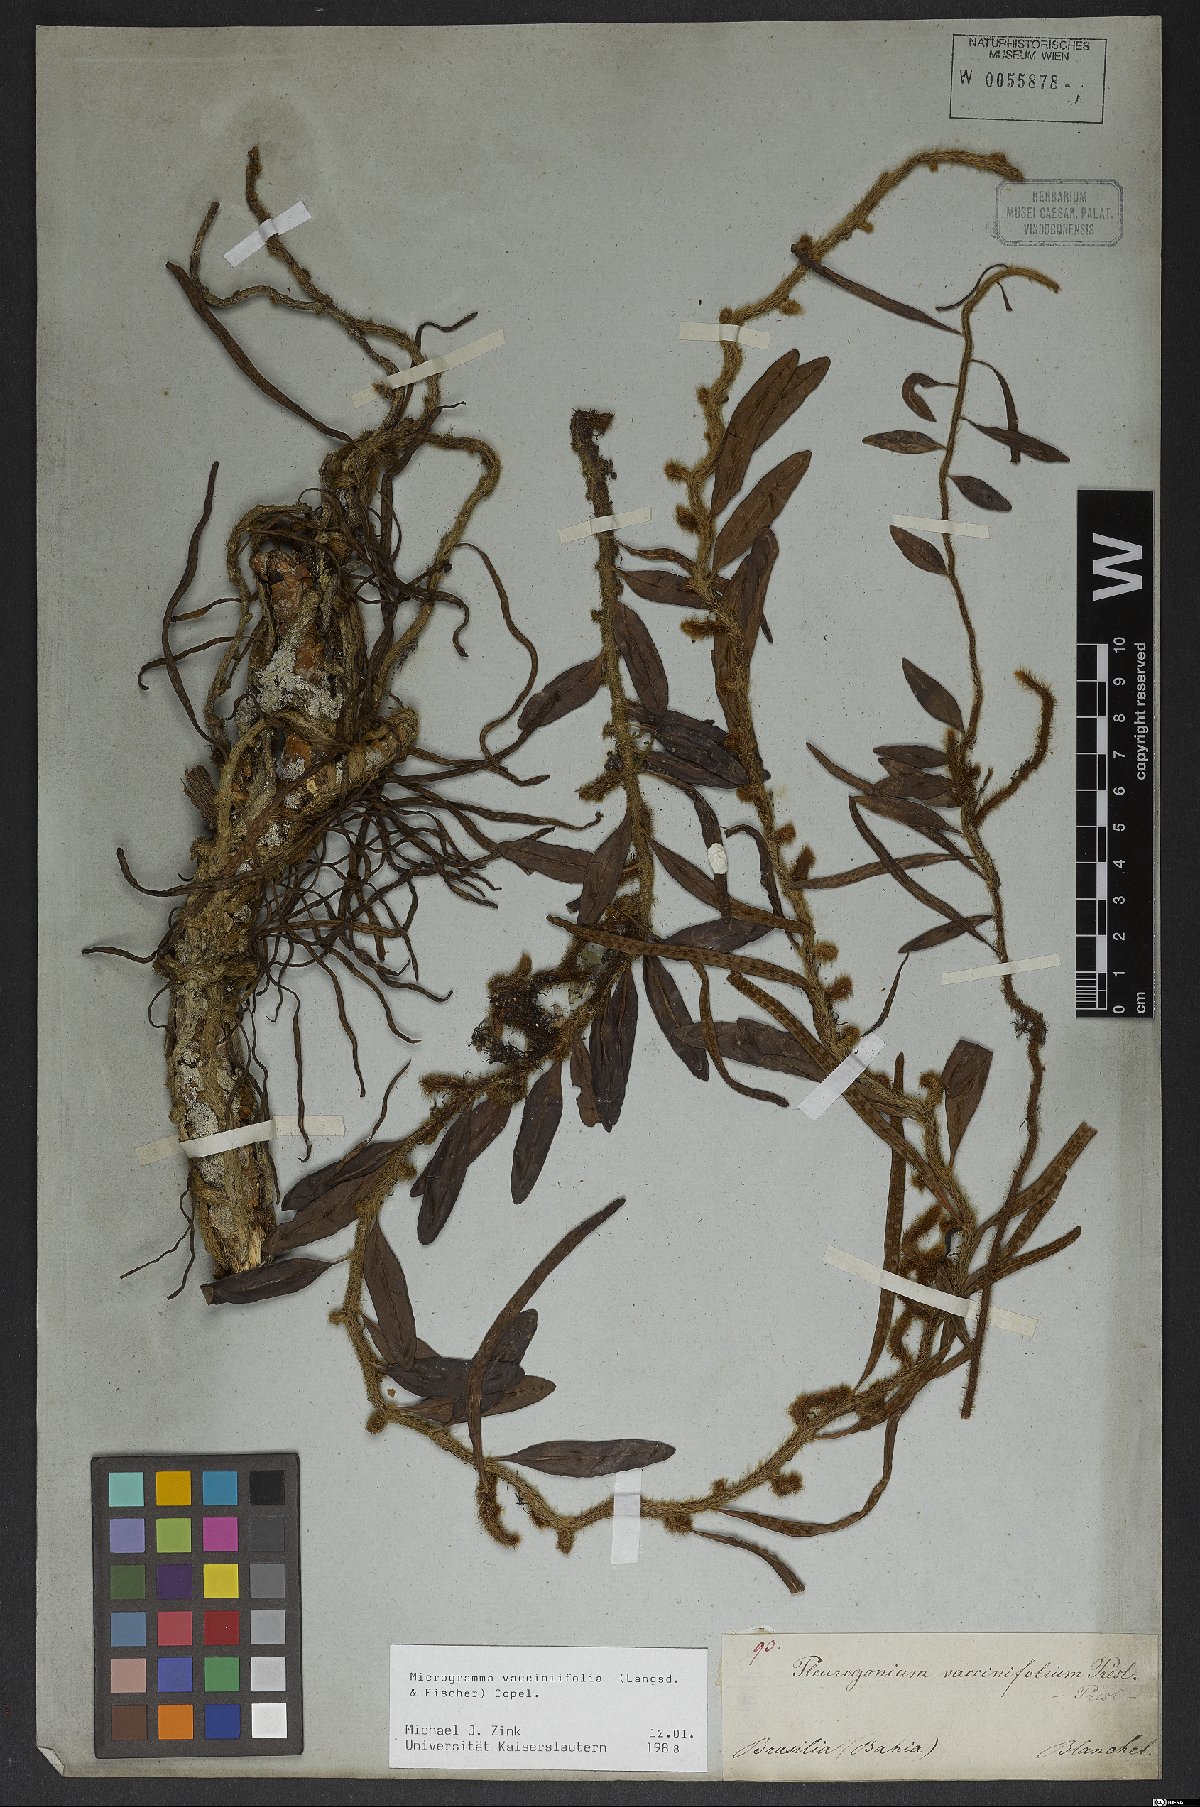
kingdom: Plantae
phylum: Tracheophyta
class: Polypodiopsida
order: Polypodiales
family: Polypodiaceae
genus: Microgramma
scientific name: Microgramma vaccinifolia
